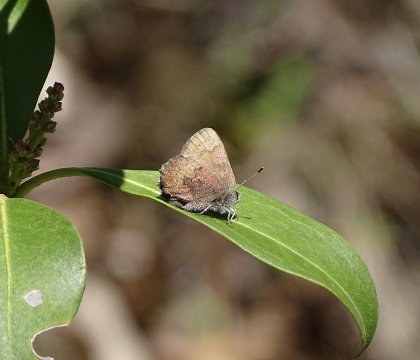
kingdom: Animalia
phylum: Arthropoda
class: Insecta
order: Lepidoptera
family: Lycaenidae
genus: Incisalia
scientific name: Incisalia irioides
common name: Brown Elfin
